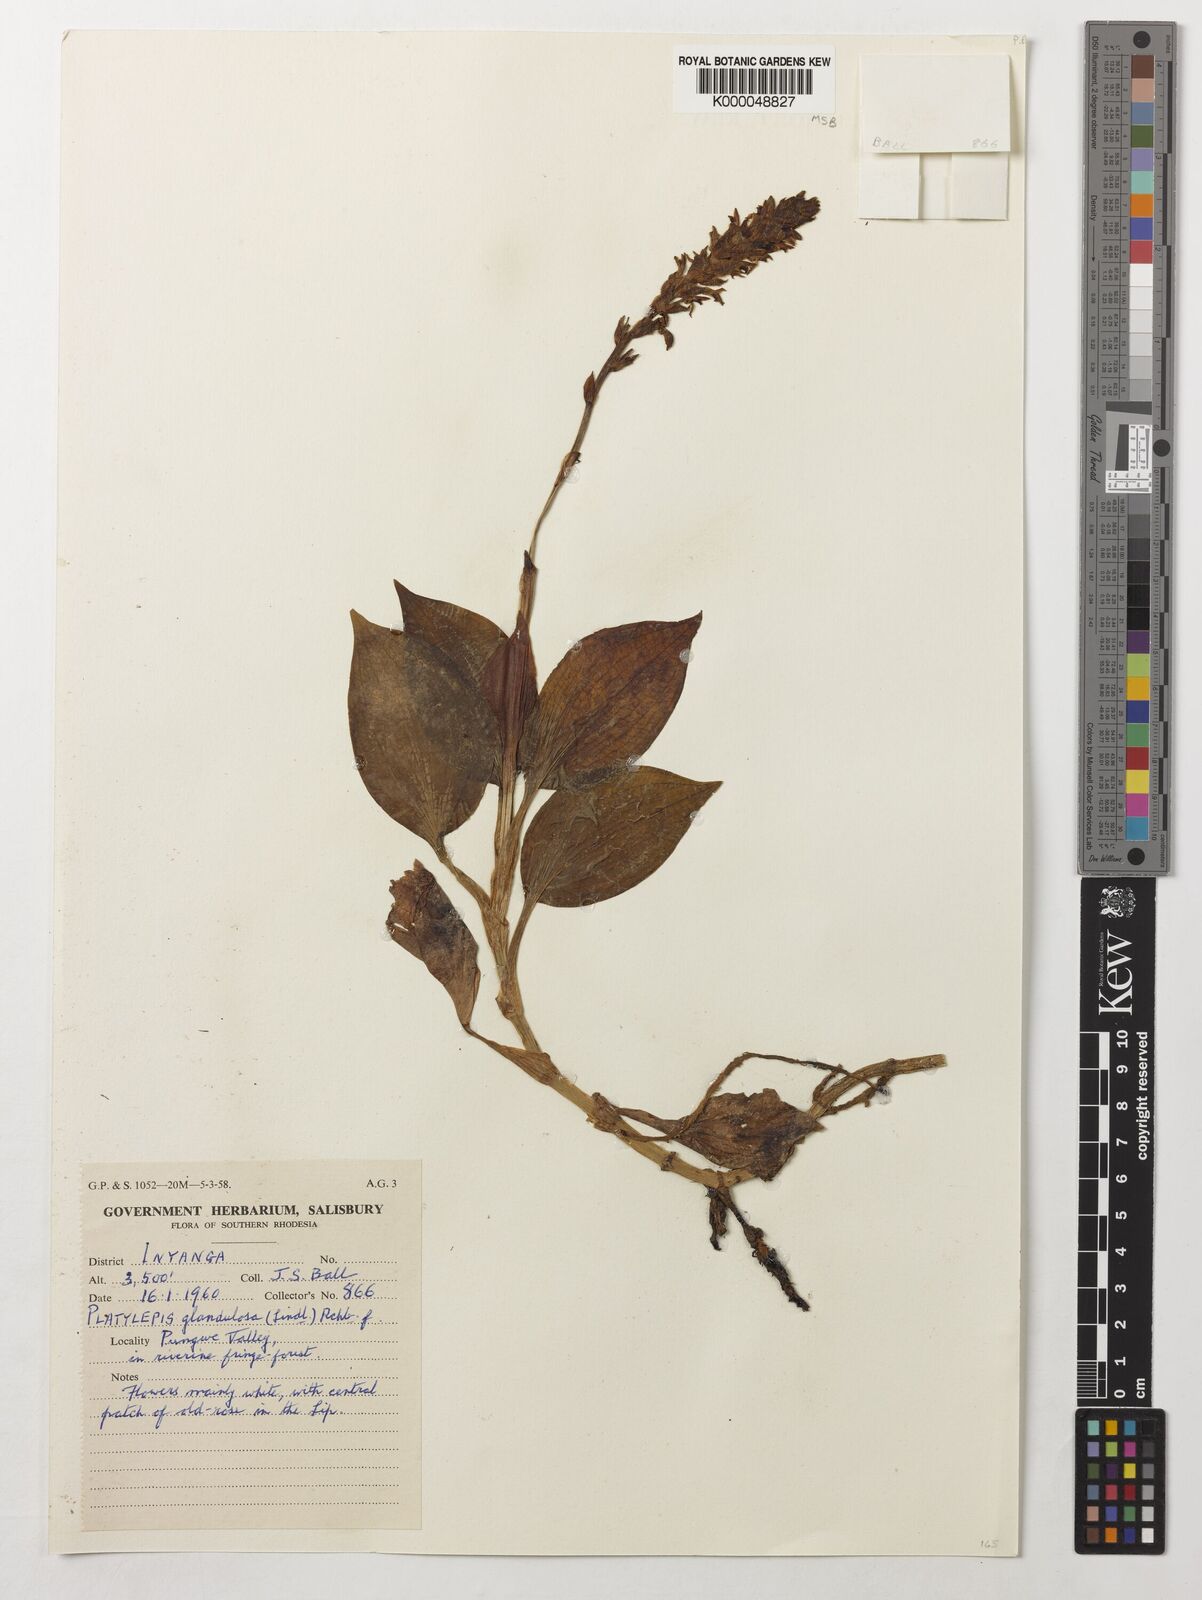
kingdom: Plantae
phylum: Tracheophyta
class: Liliopsida
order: Asparagales
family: Orchidaceae
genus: Platylepis
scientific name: Platylepis glandulosa
